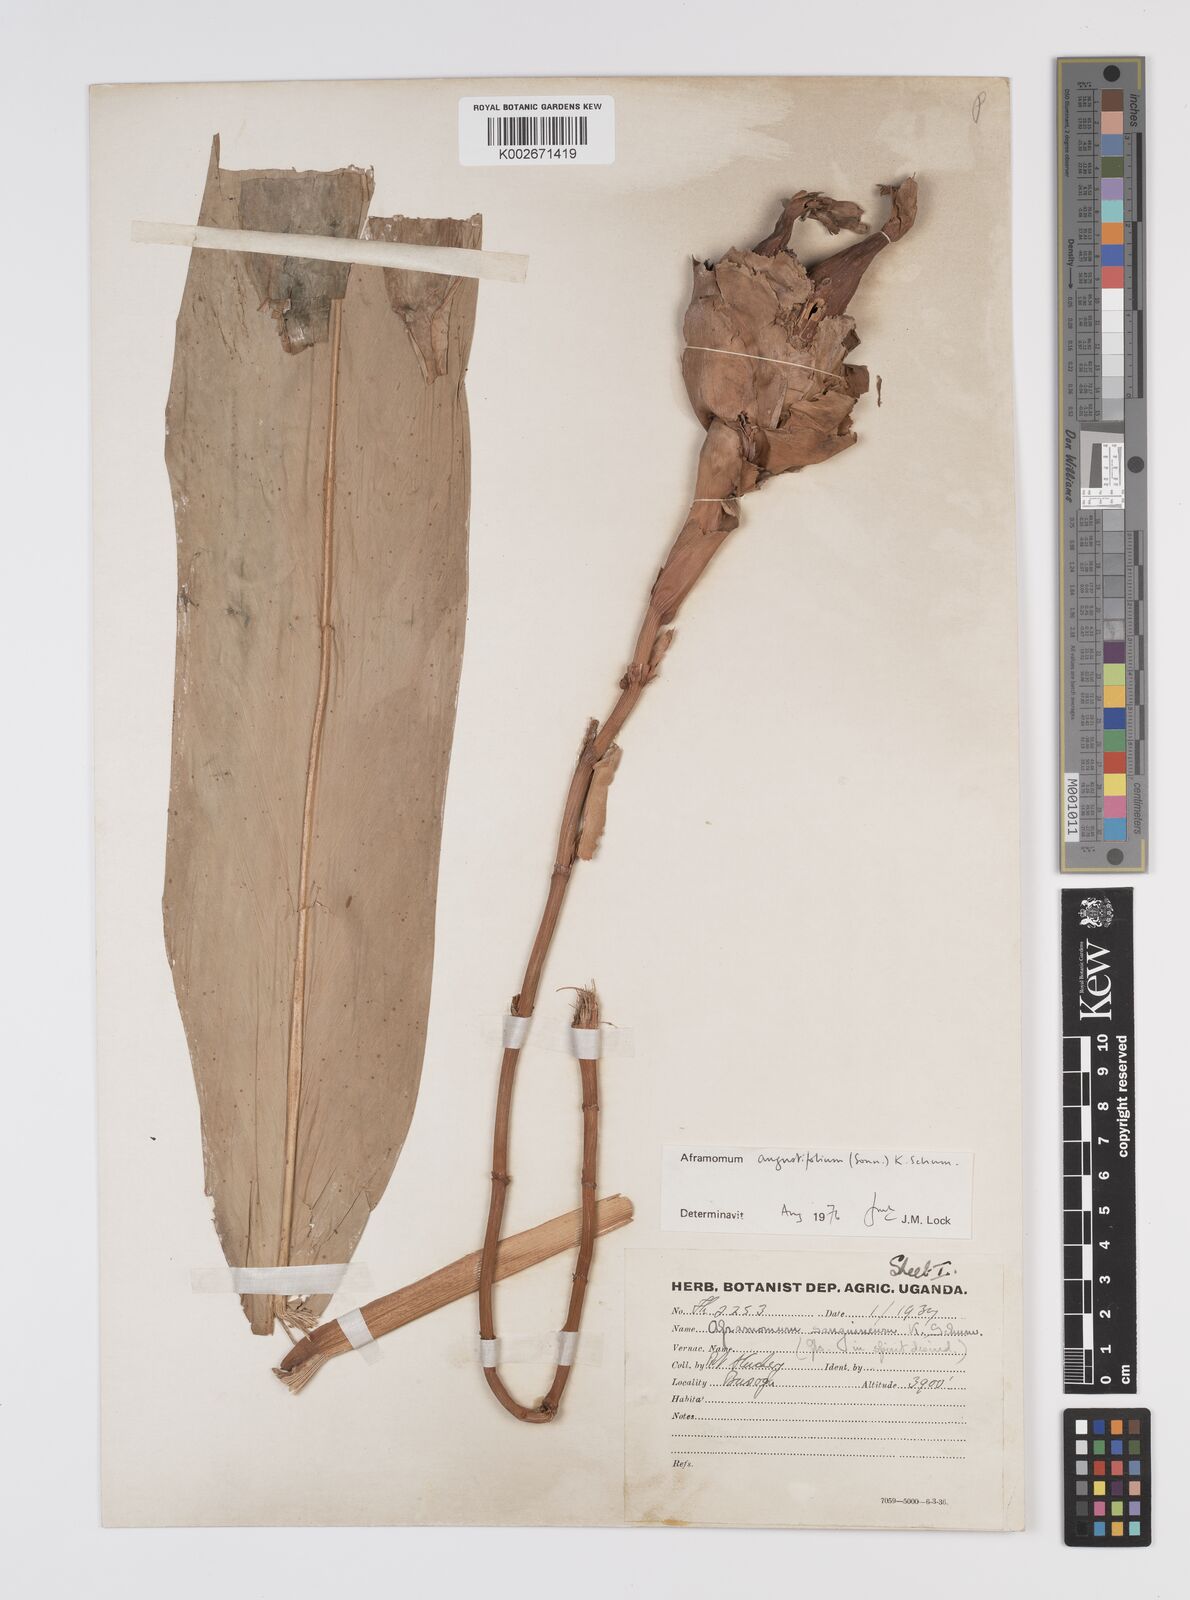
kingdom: Plantae
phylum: Tracheophyta
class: Liliopsida
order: Zingiberales
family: Zingiberaceae
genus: Aframomum
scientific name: Aframomum angustifolium
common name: Guinea grains
